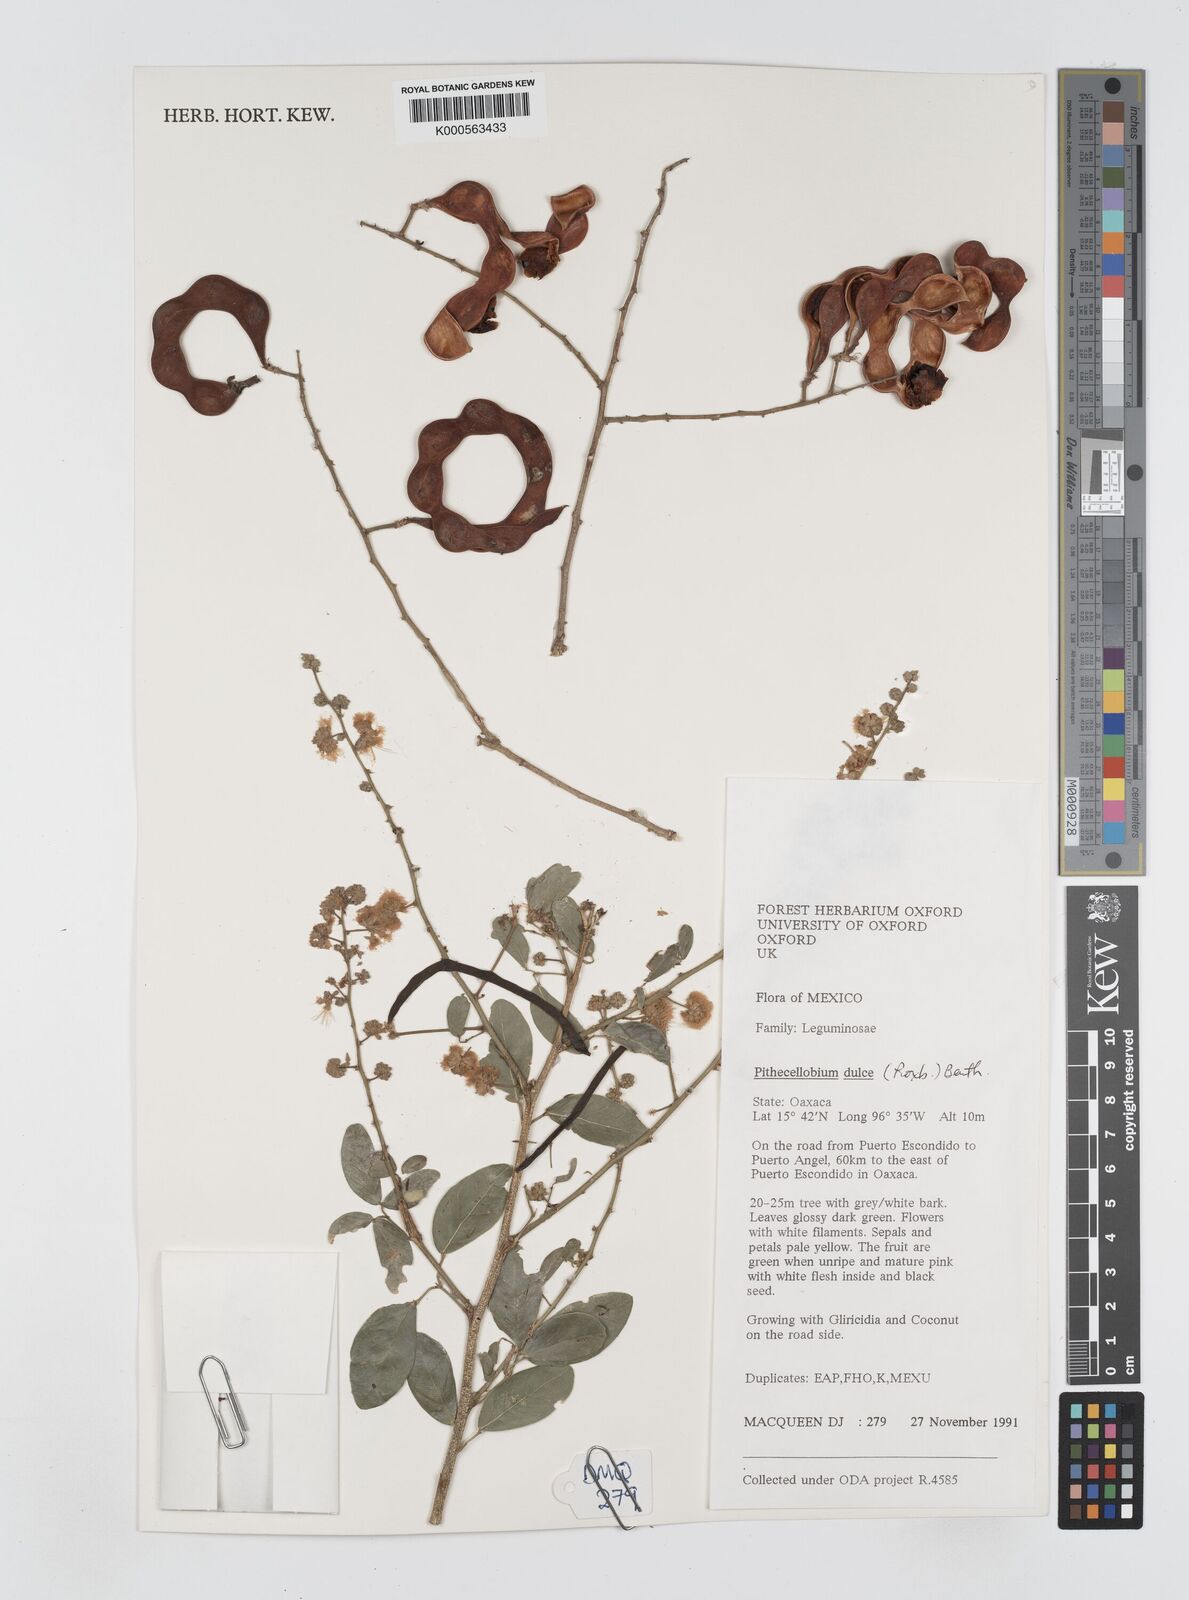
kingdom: Plantae
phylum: Tracheophyta
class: Magnoliopsida
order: Fabales
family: Fabaceae
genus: Pithecellobium
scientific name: Pithecellobium dulce
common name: Monkeypod
